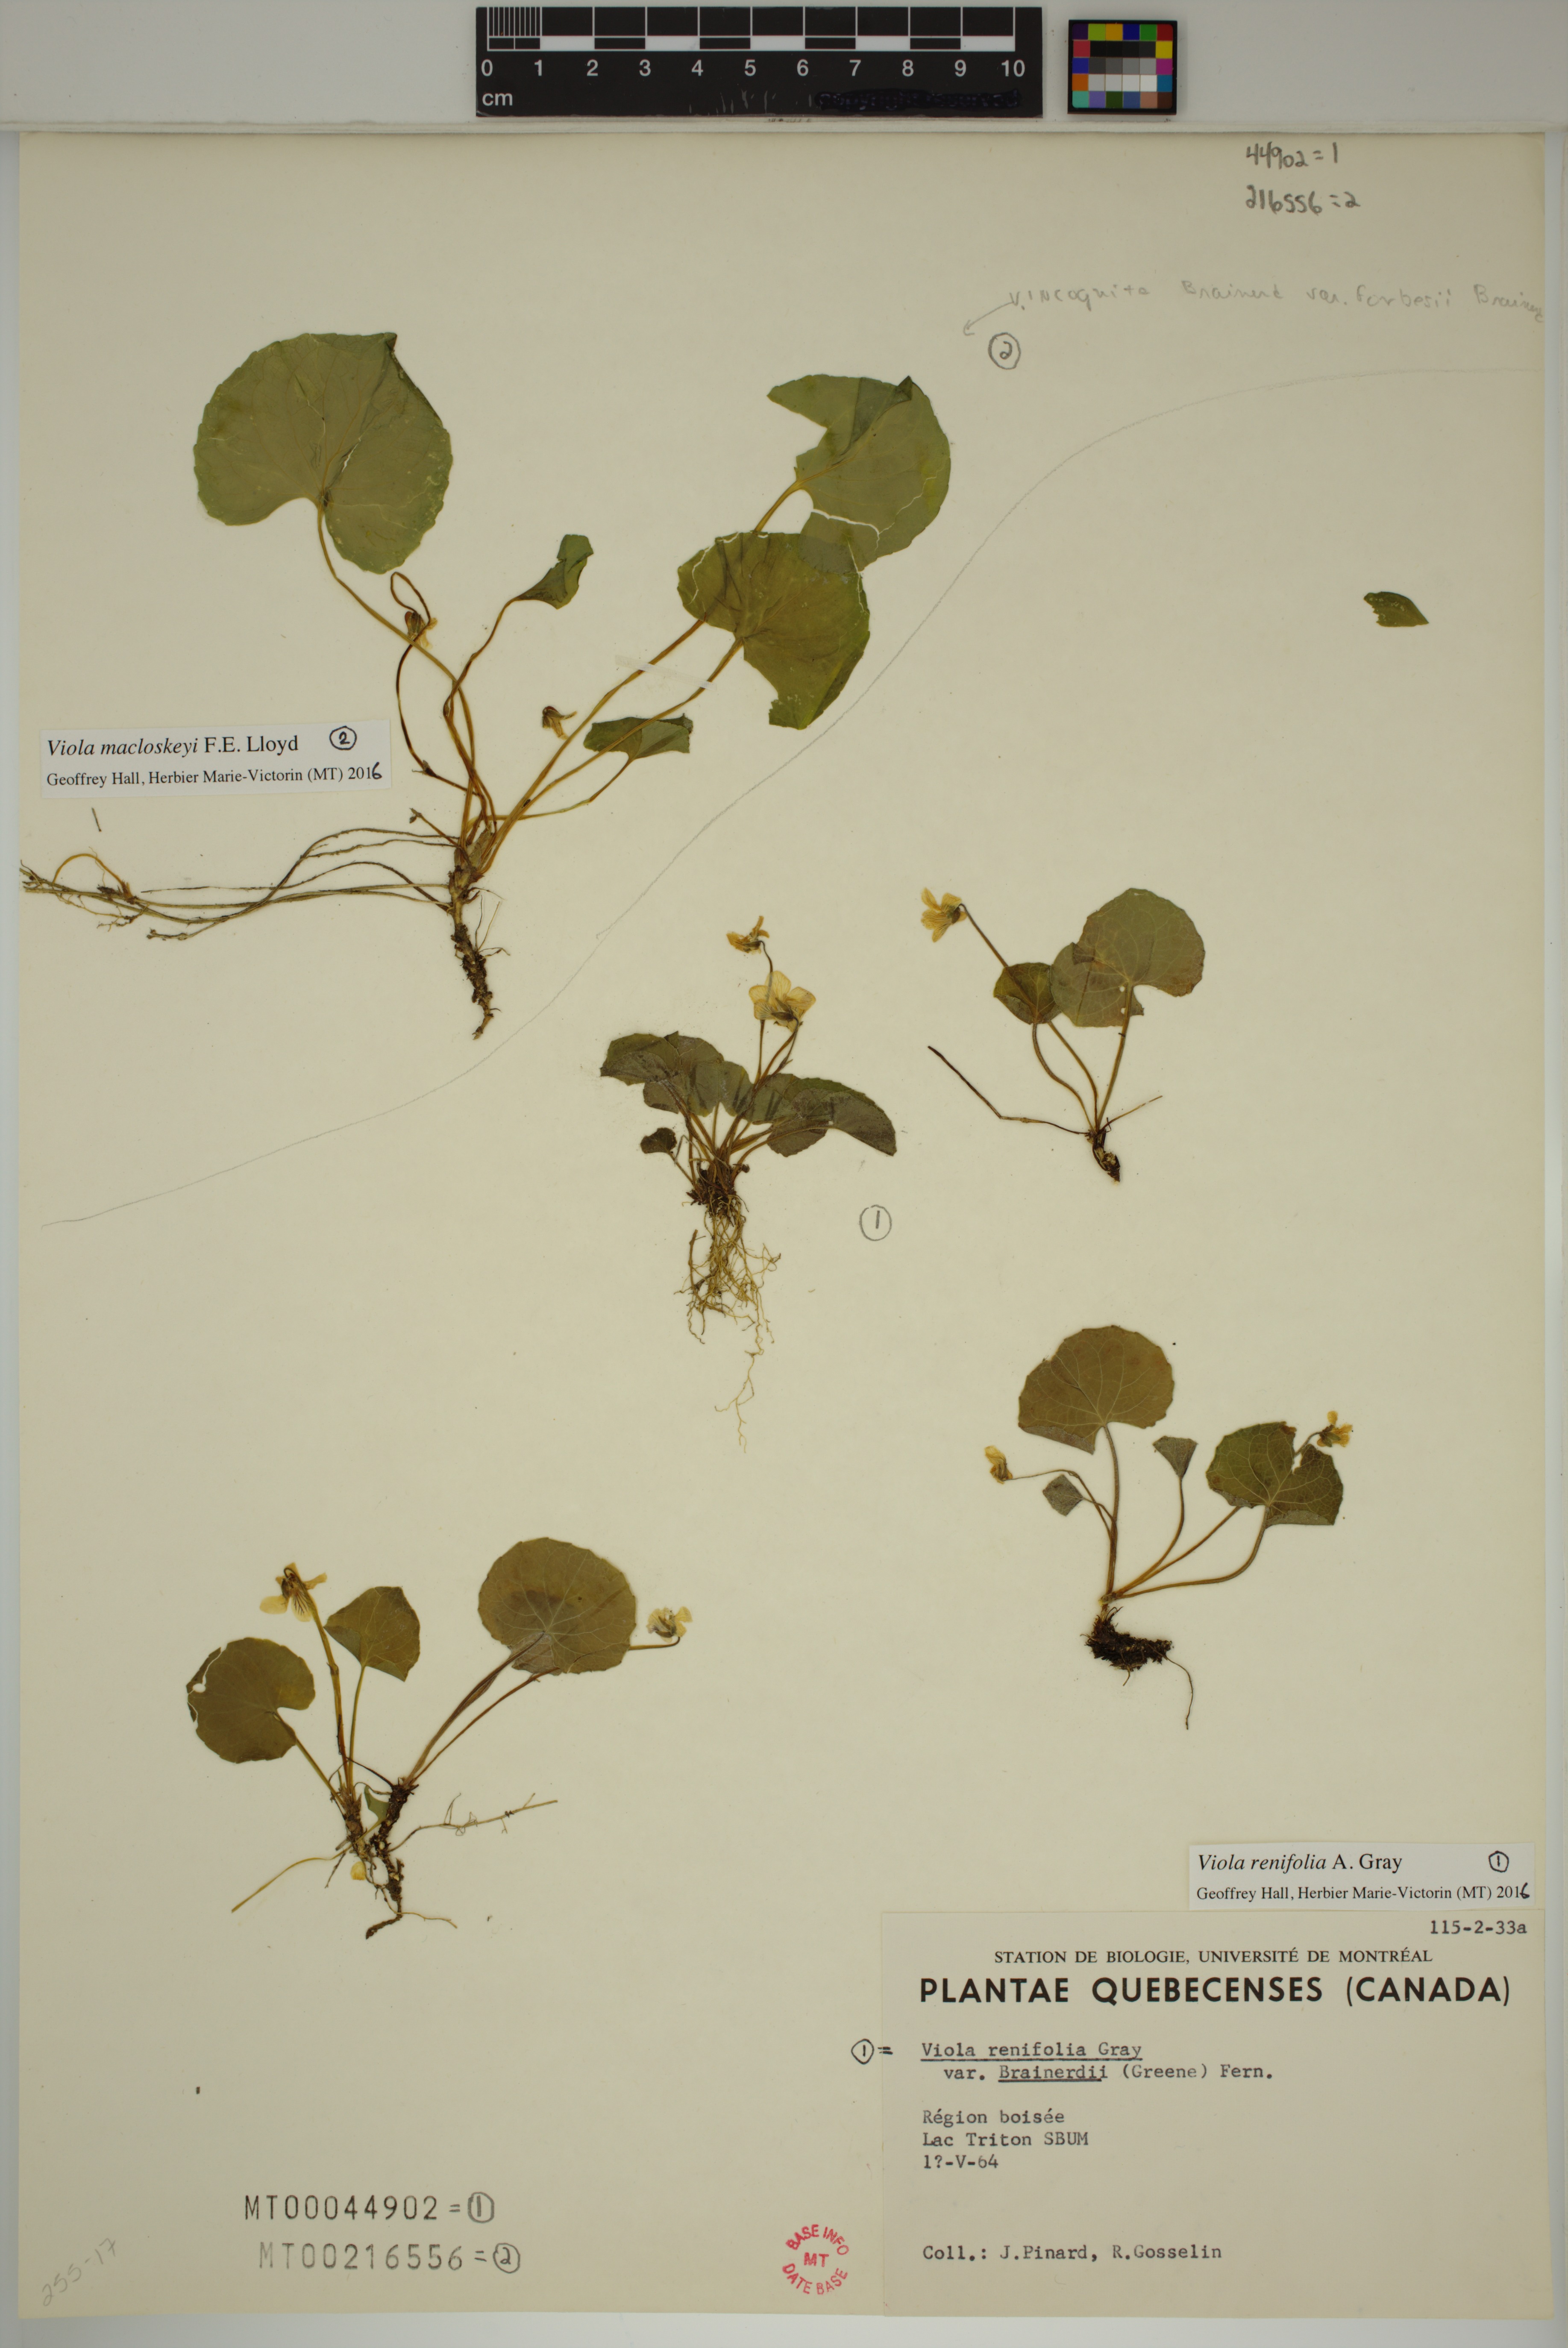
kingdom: Plantae
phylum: Tracheophyta
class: Magnoliopsida
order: Malpighiales
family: Violaceae
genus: Viola
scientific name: Viola renifolia
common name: Kidney-leaf violet
